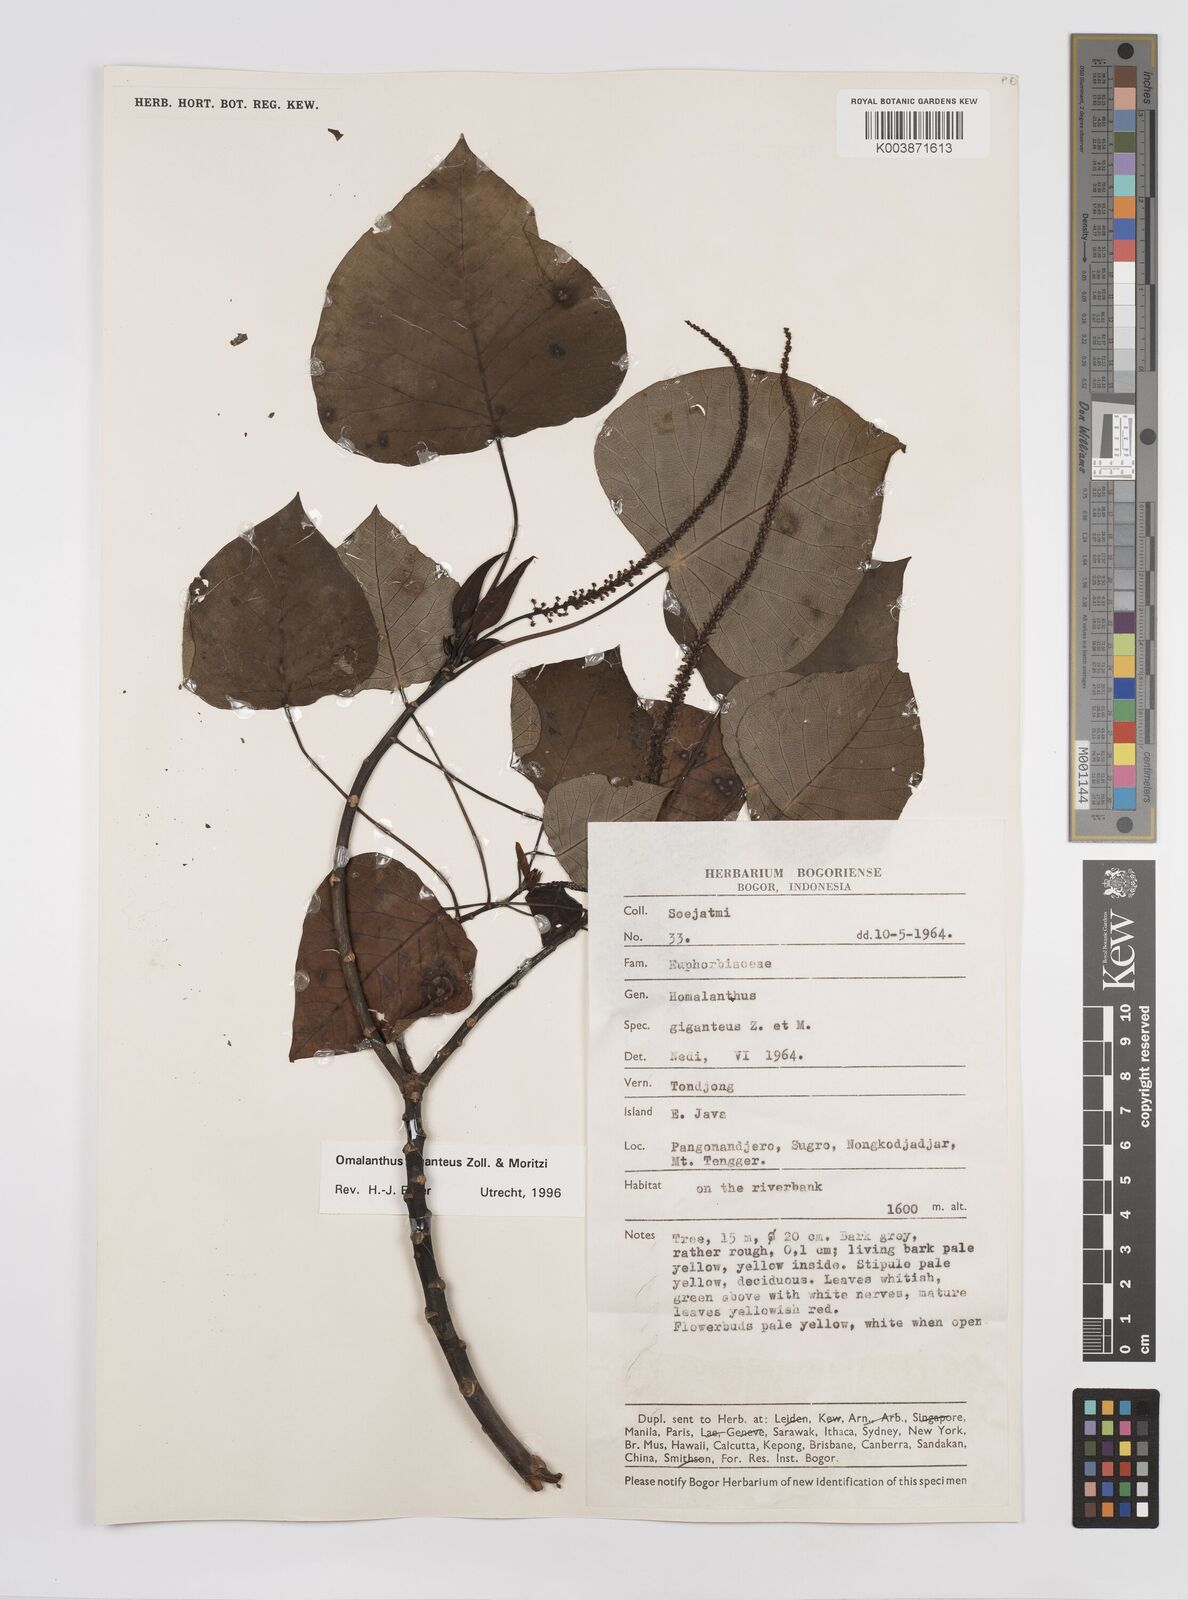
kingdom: Plantae
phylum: Tracheophyta
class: Magnoliopsida
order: Malpighiales
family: Euphorbiaceae
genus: Homalanthus
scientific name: Homalanthus giganteus
